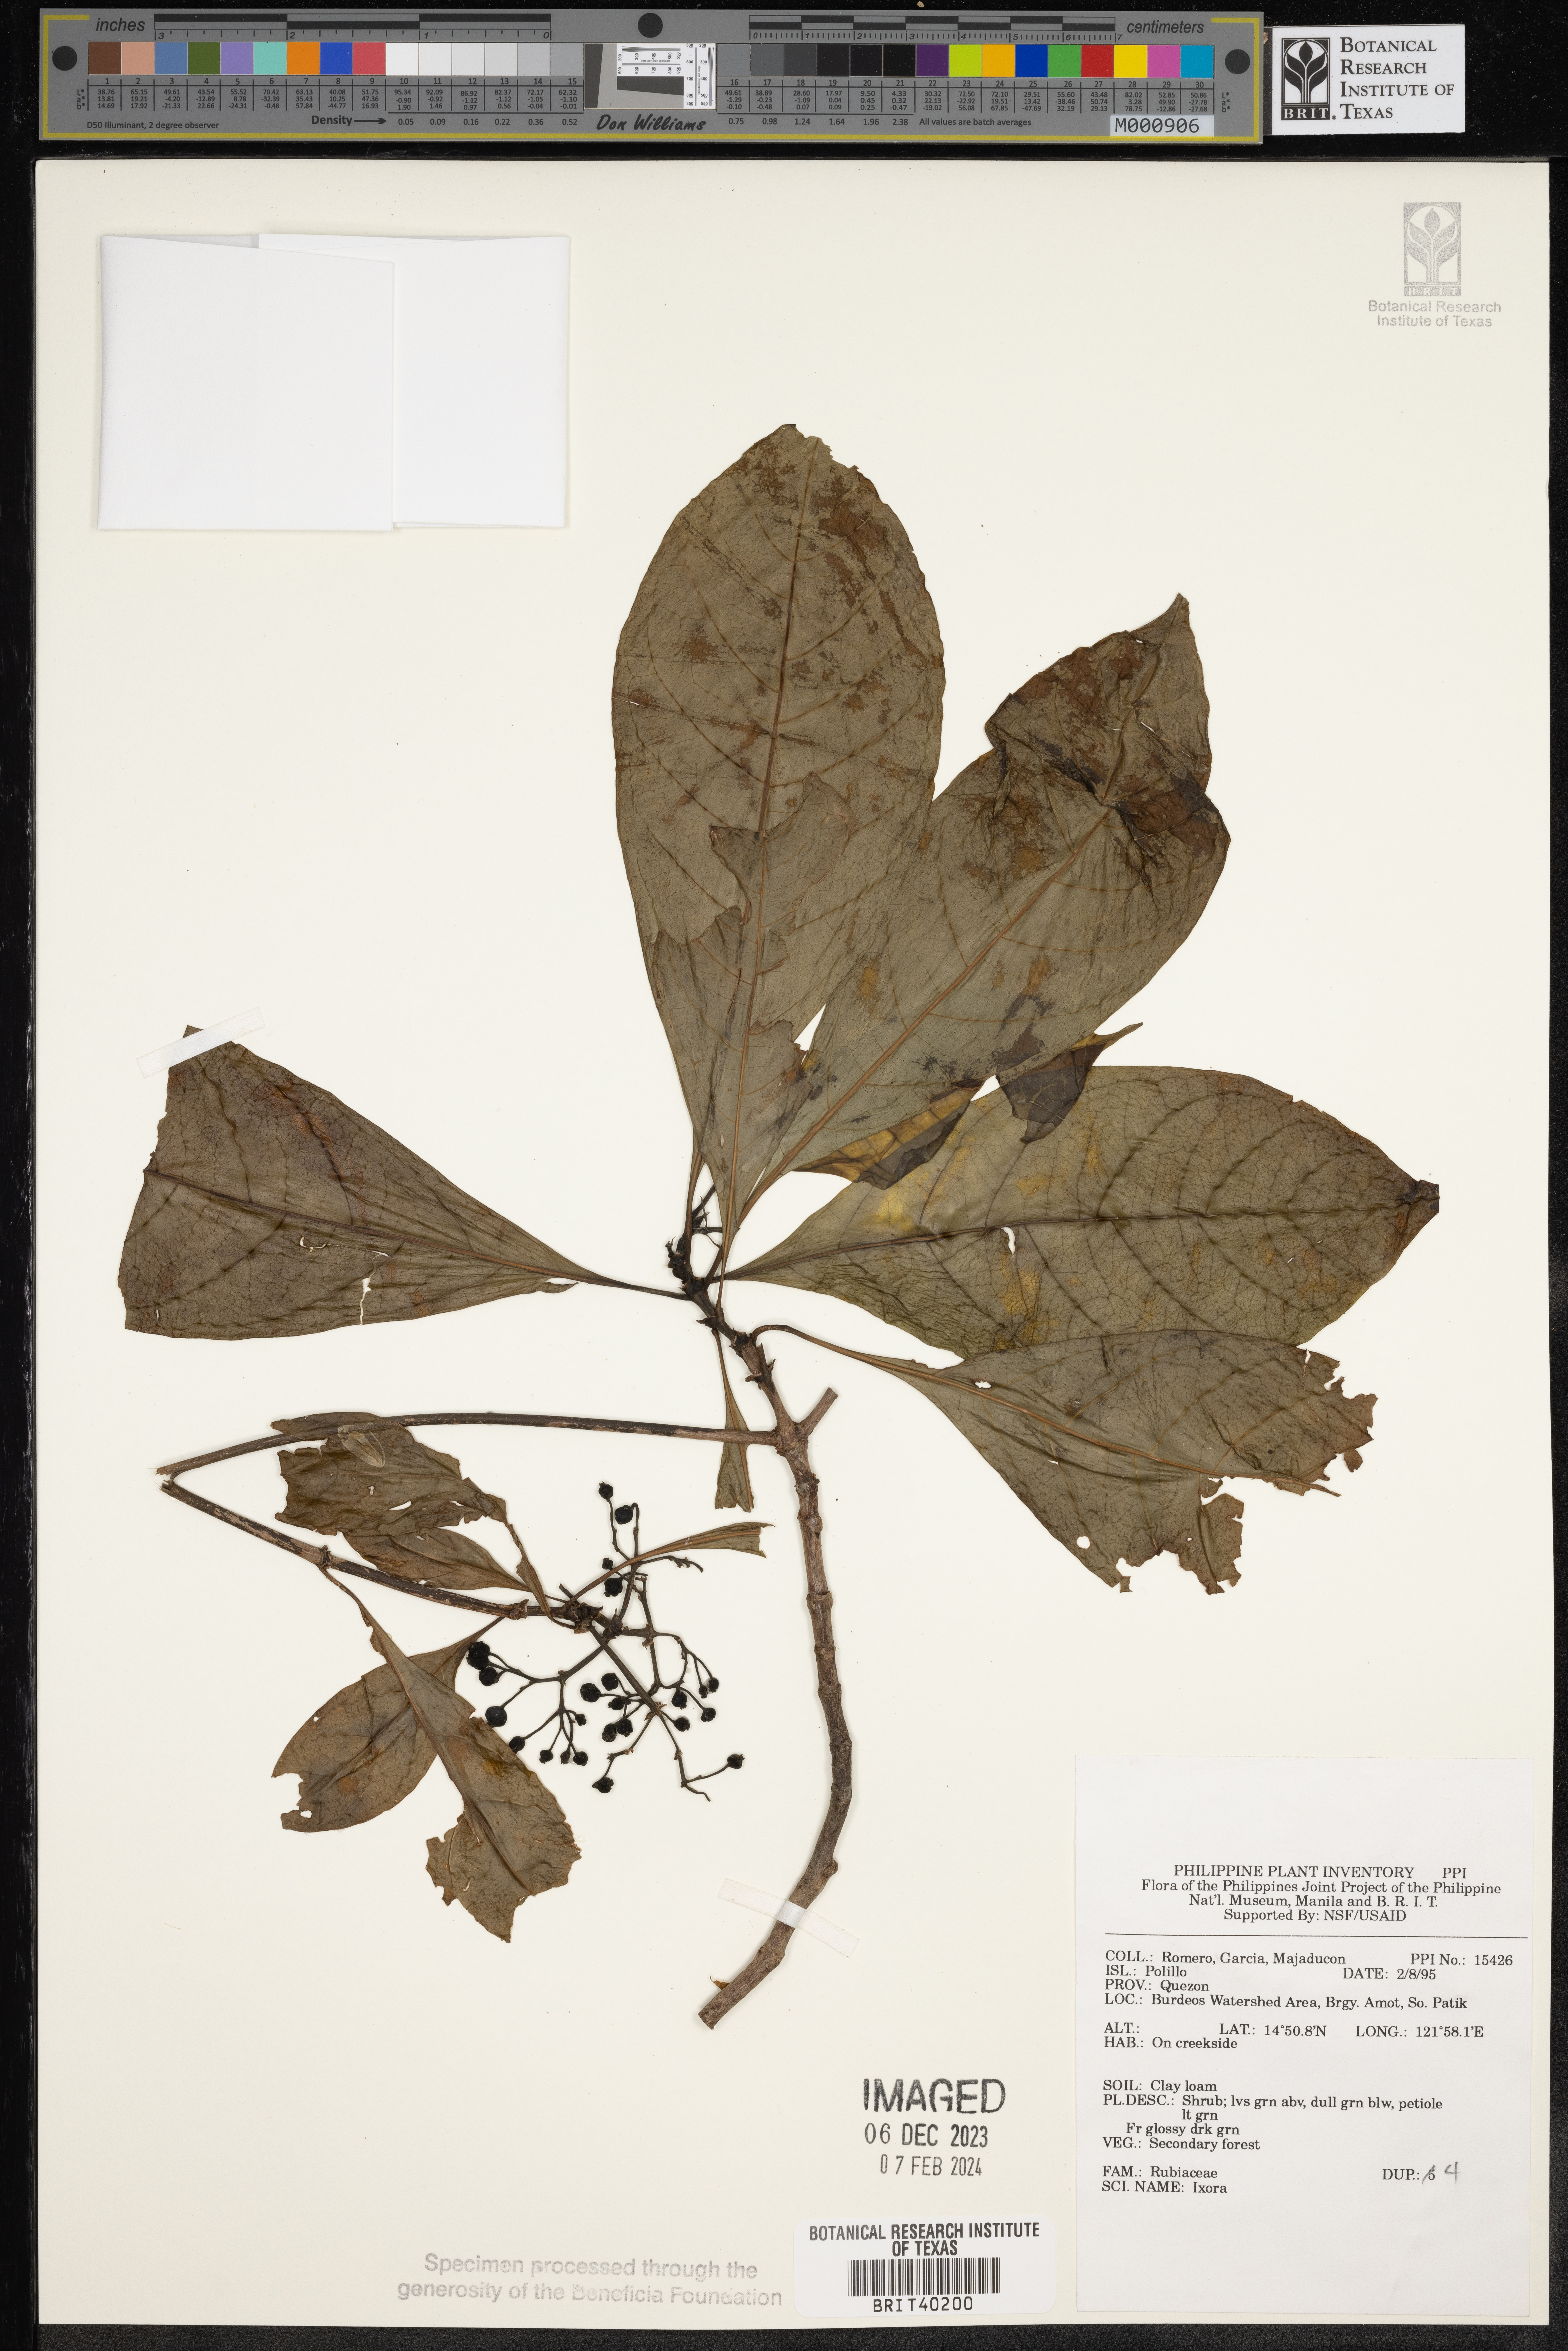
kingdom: Plantae
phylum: Tracheophyta
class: Magnoliopsida
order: Gentianales
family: Rubiaceae
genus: Ixora
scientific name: Ixora
